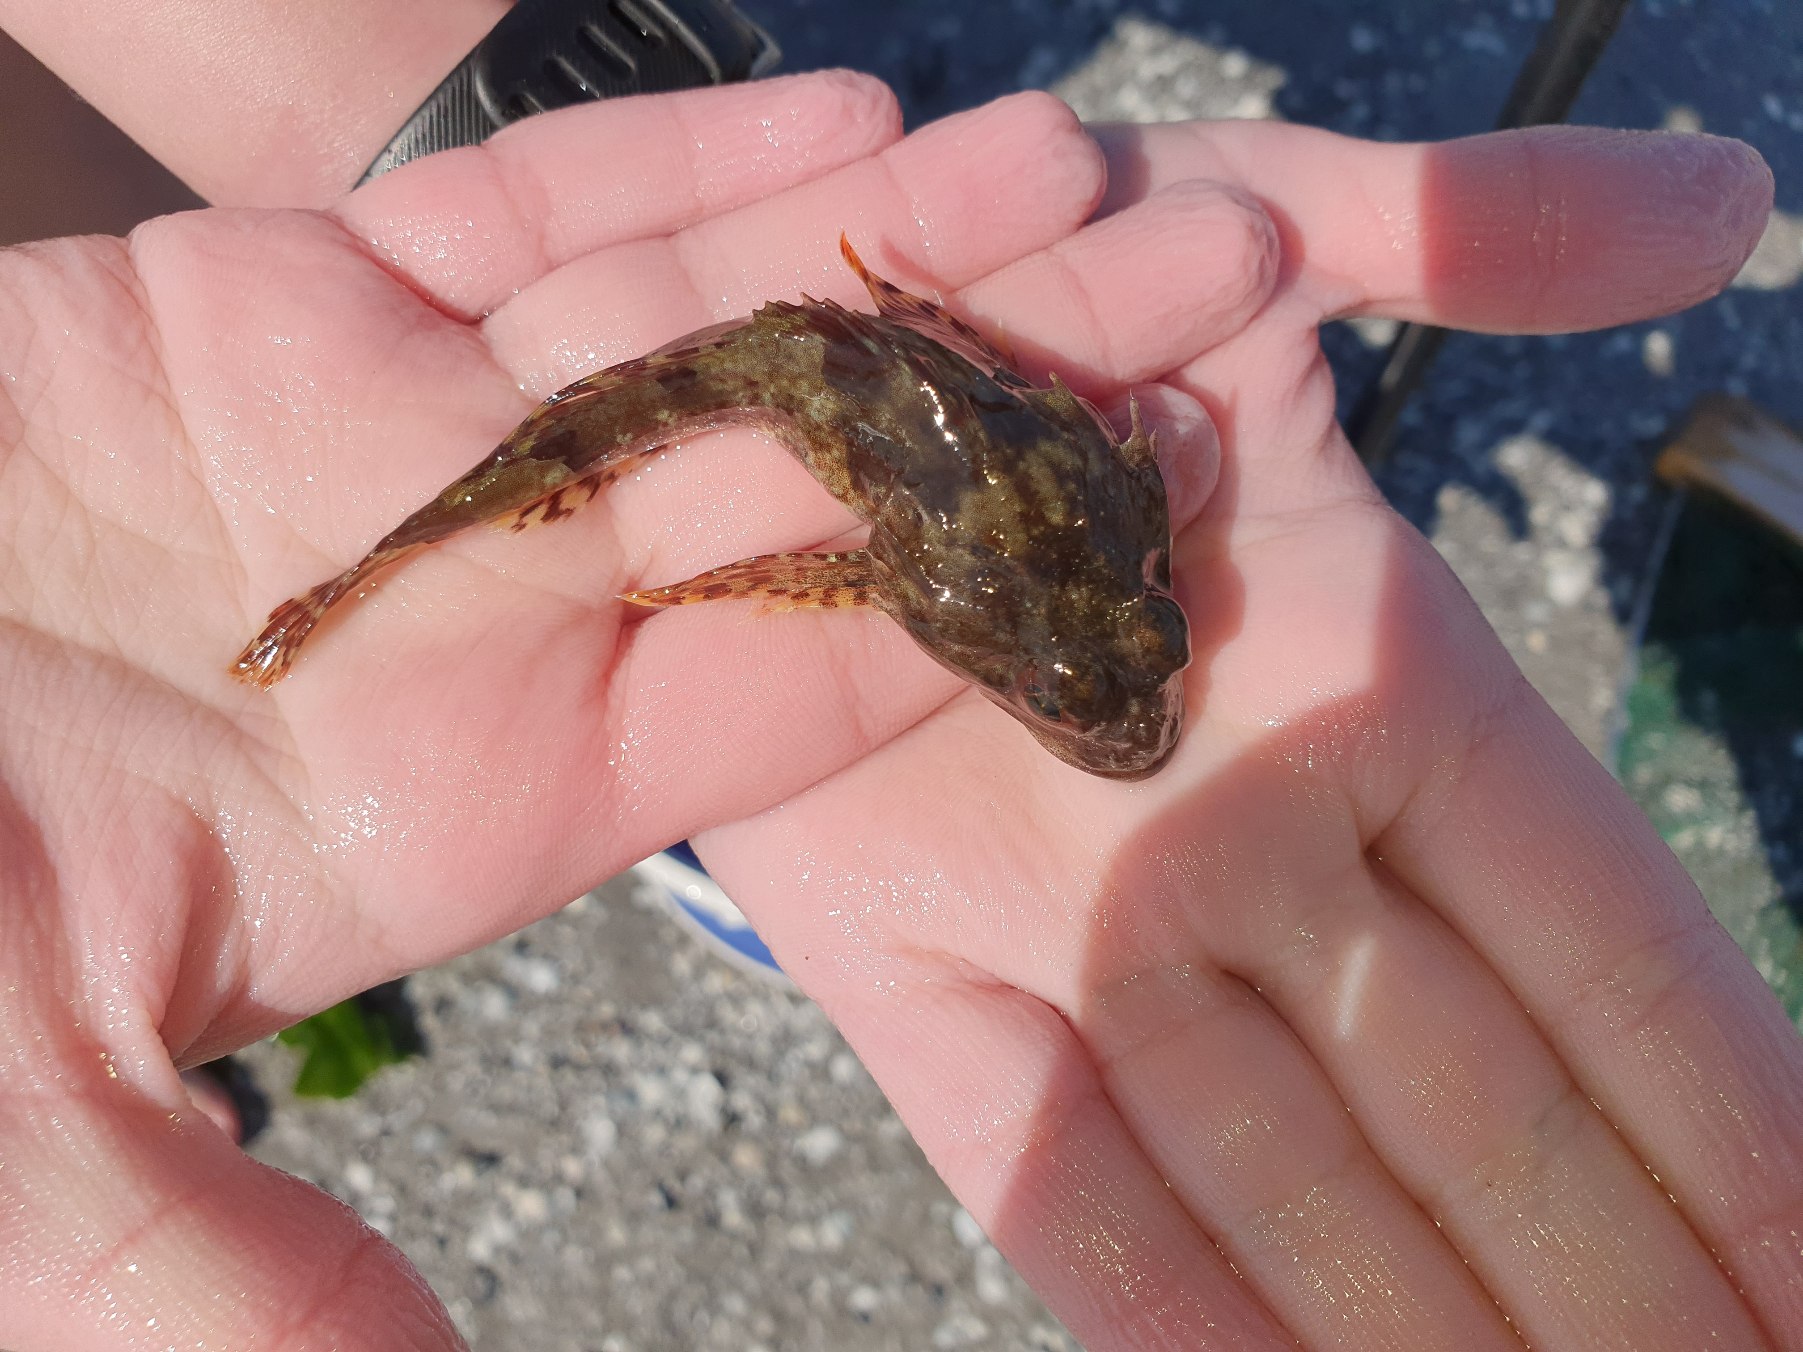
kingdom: Animalia
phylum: Chordata
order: Scorpaeniformes
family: Cottidae
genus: Myoxocephalus
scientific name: Myoxocephalus scorpius
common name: Almindelig ulk
